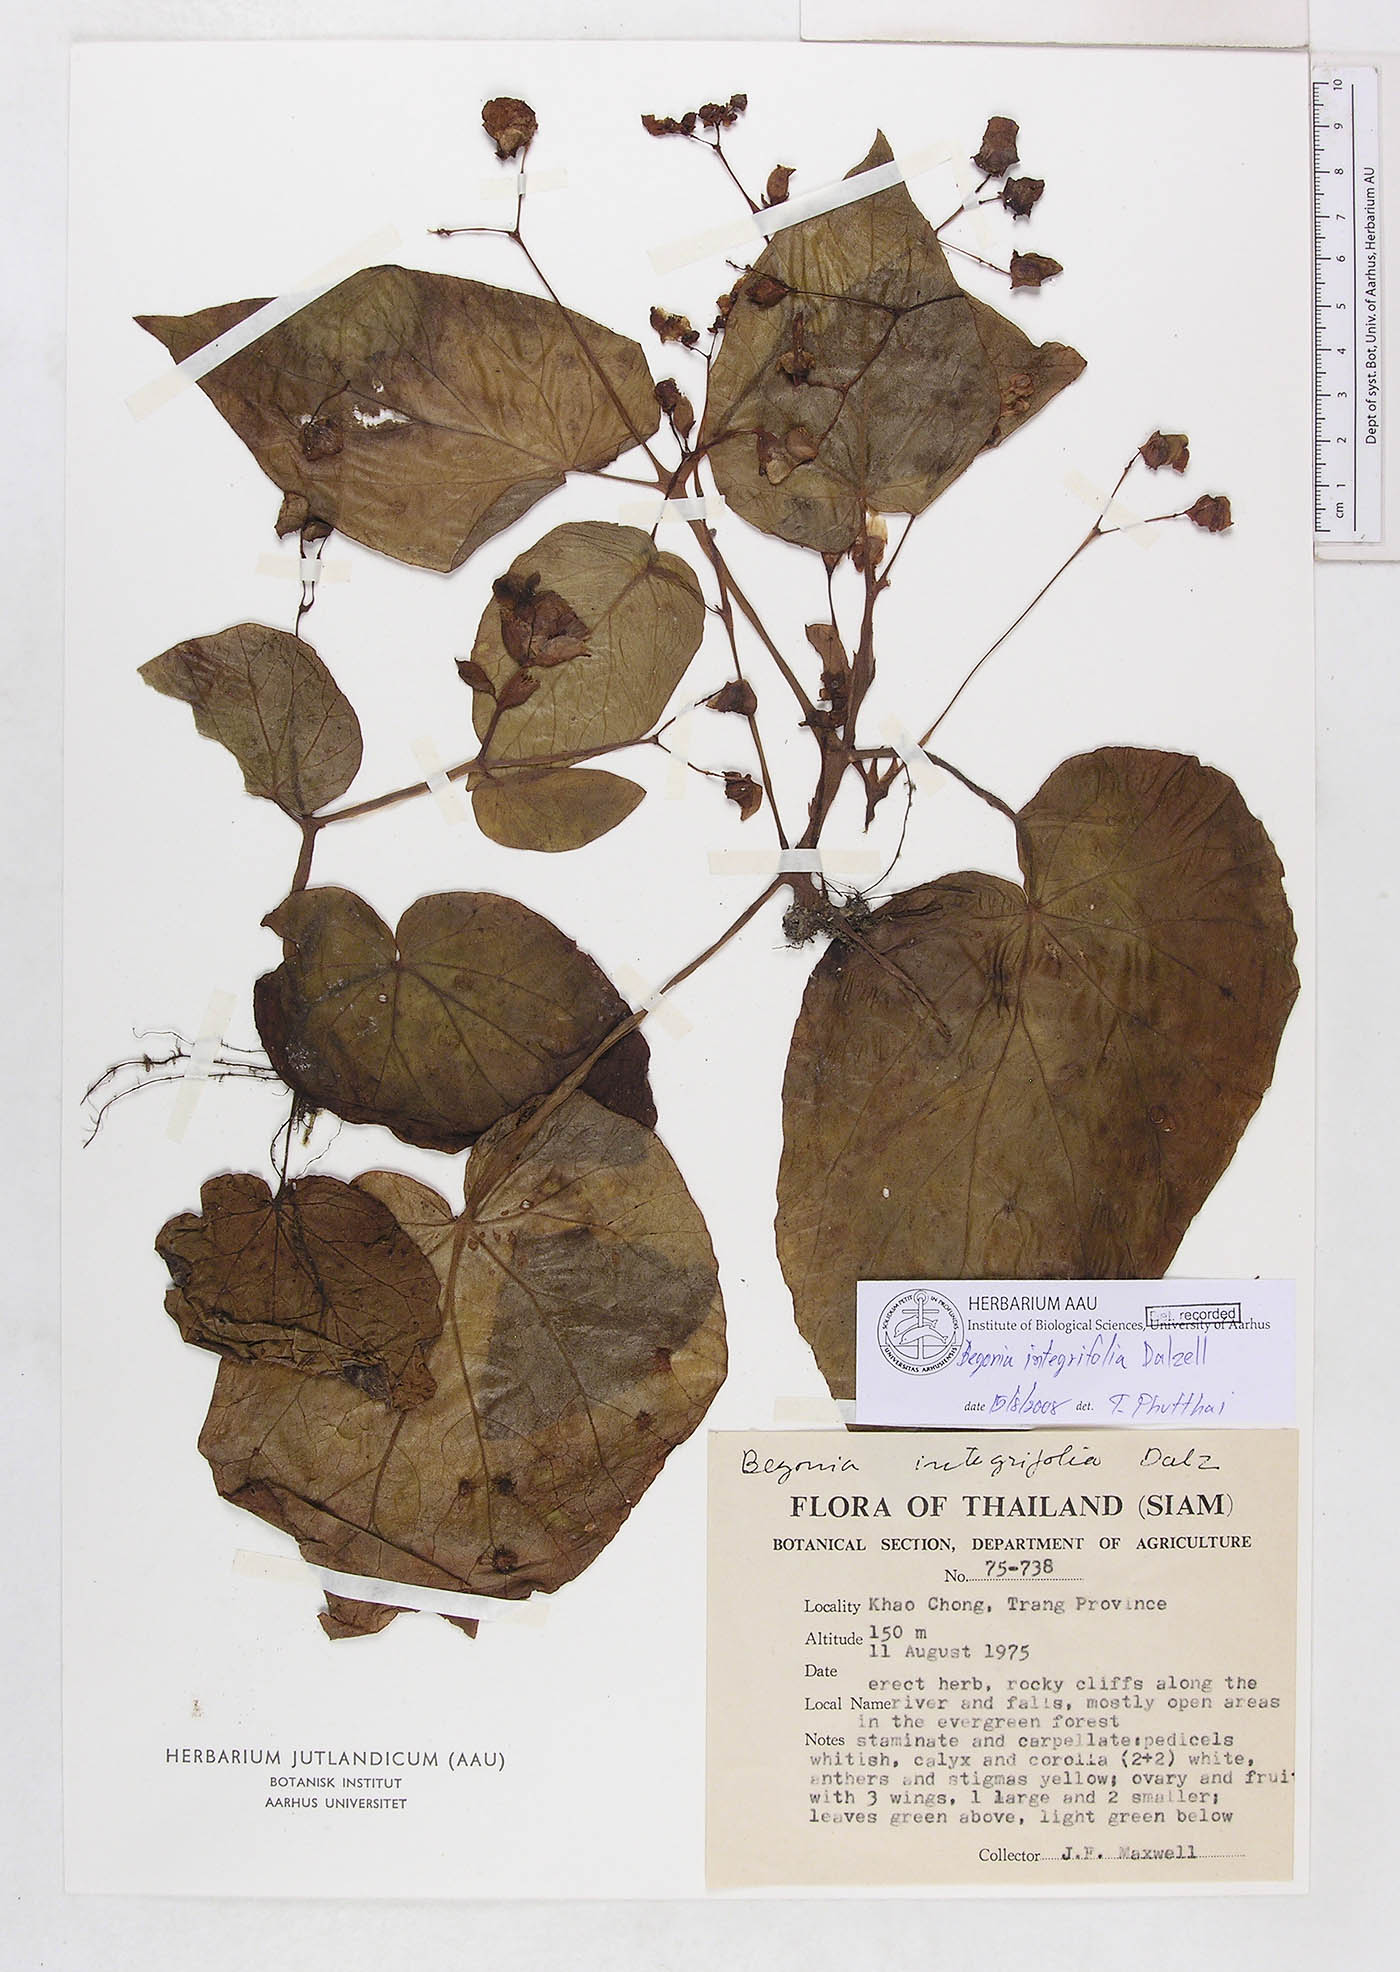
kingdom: Plantae
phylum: Tracheophyta
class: Magnoliopsida
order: Cucurbitales
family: Begoniaceae
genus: Begonia
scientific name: Begonia integrifolia
